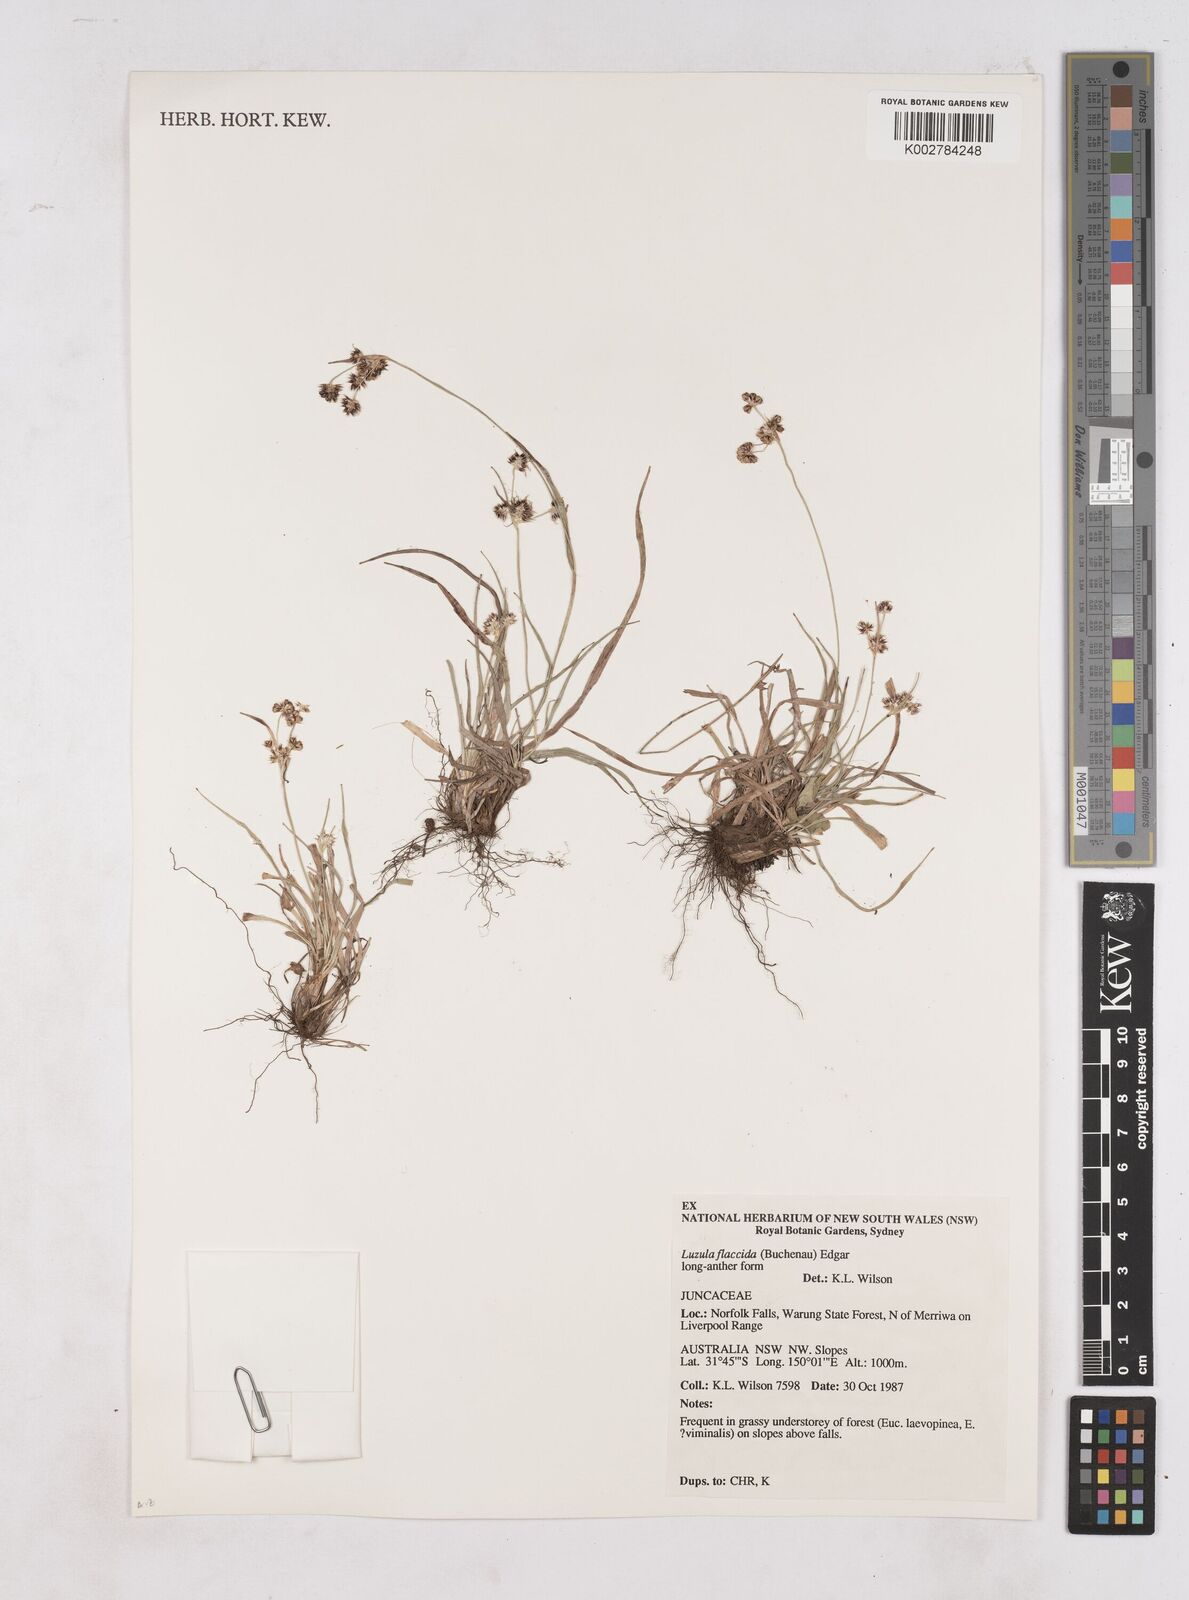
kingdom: Plantae
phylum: Tracheophyta
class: Liliopsida
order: Poales
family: Juncaceae
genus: Luzula
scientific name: Luzula flaccida
